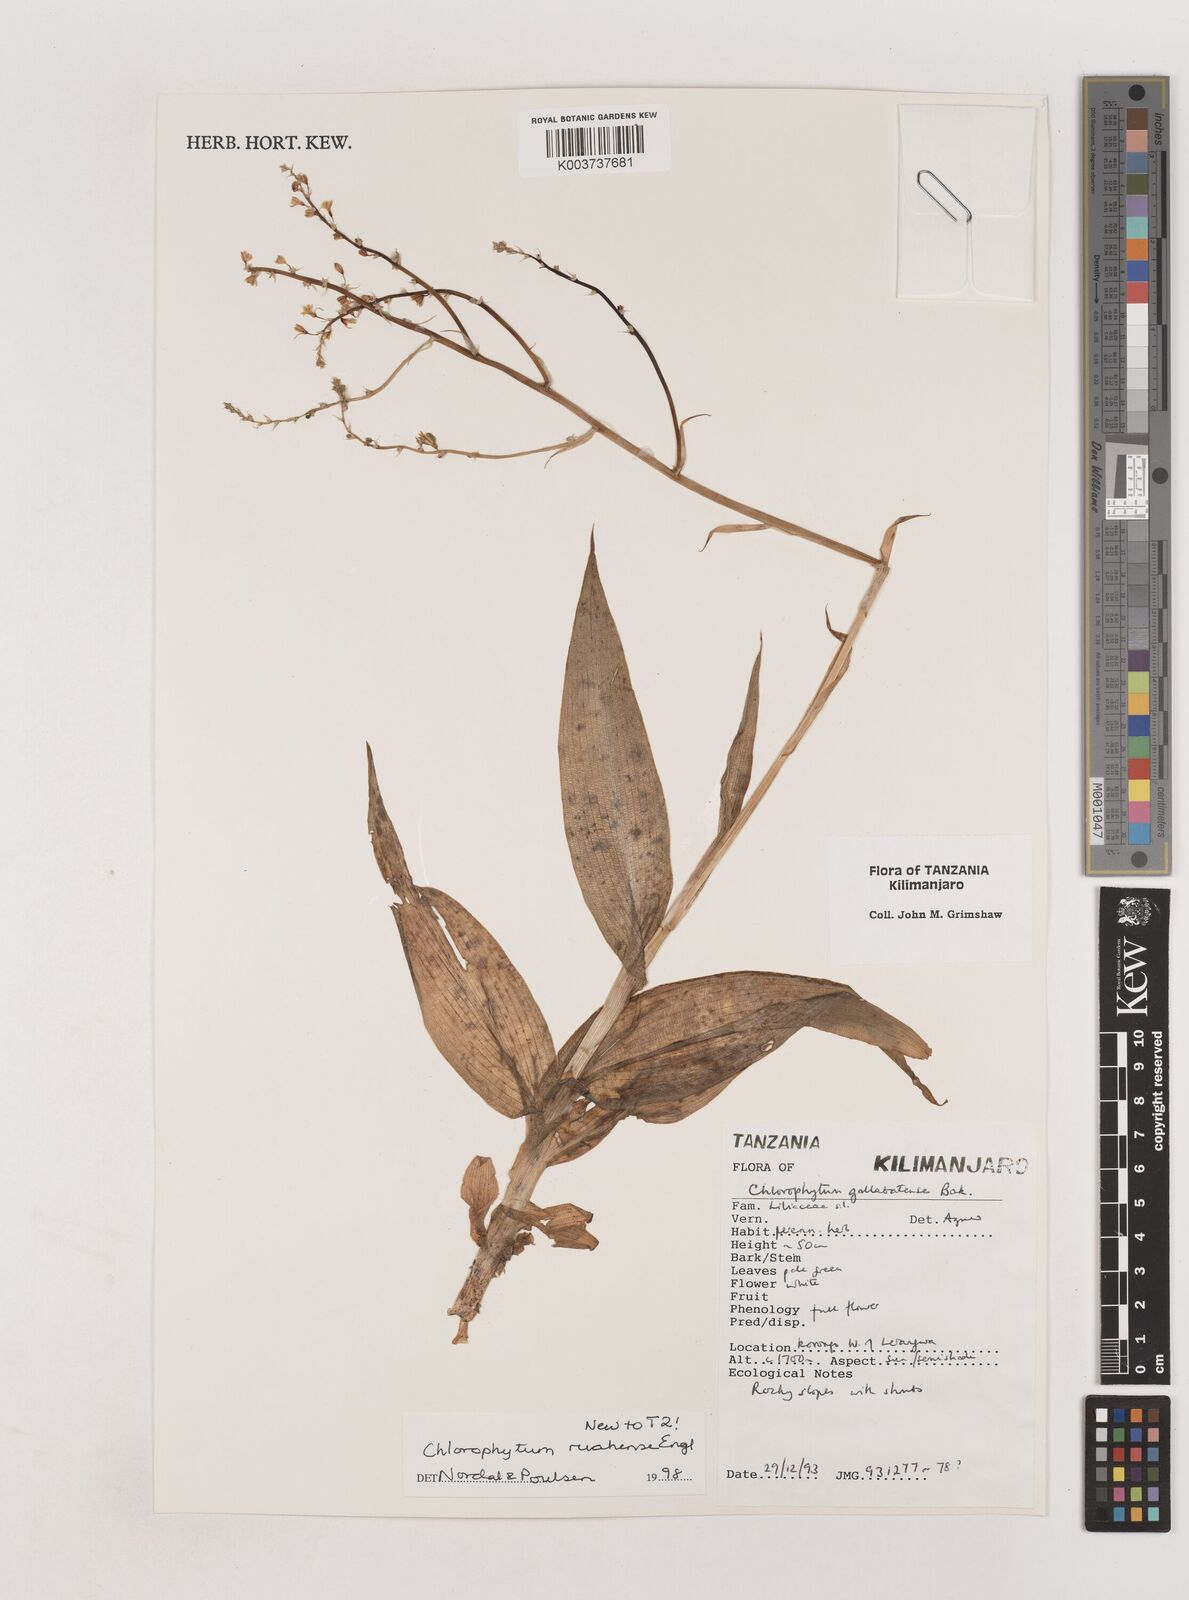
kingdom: Plantae
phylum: Tracheophyta
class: Liliopsida
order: Asparagales
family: Asparagaceae
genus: Chlorophytum
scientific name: Chlorophytum ruahense
